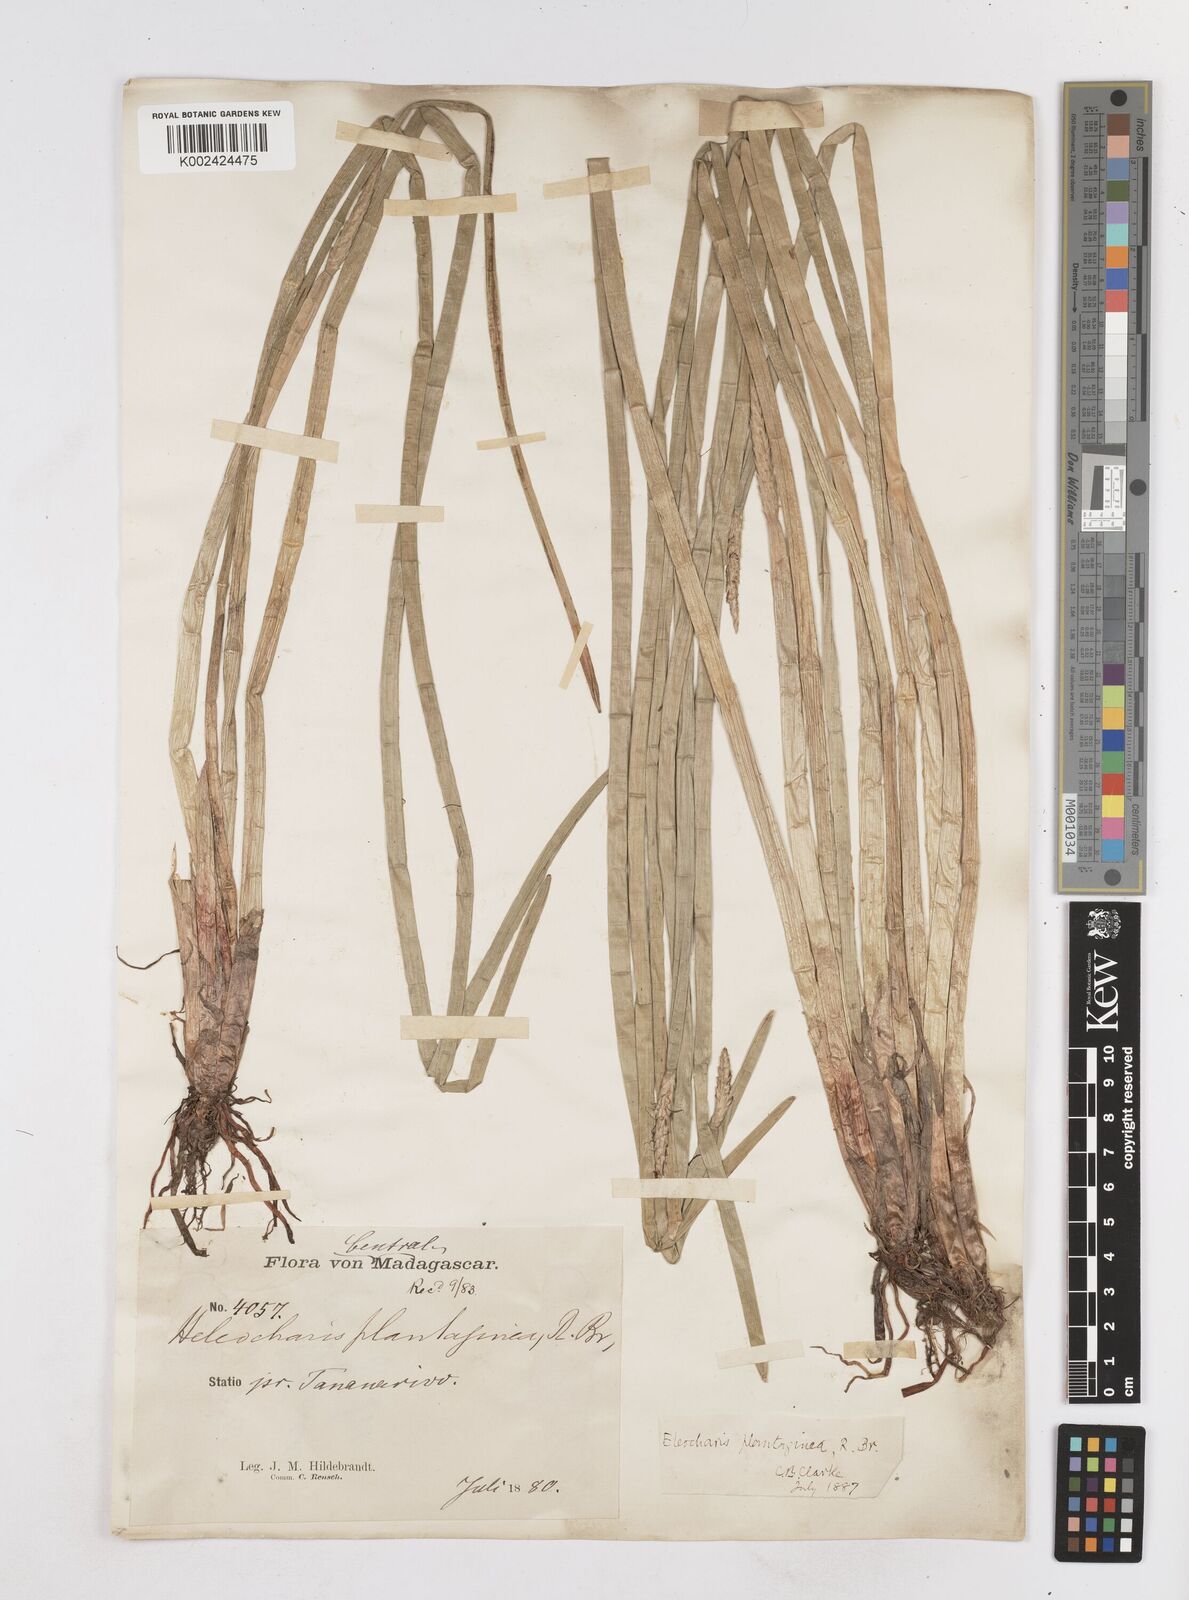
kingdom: Plantae
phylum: Tracheophyta
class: Liliopsida
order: Poales
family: Cyperaceae
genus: Eleocharis
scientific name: Eleocharis dulcis
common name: Chinese water chestnut
